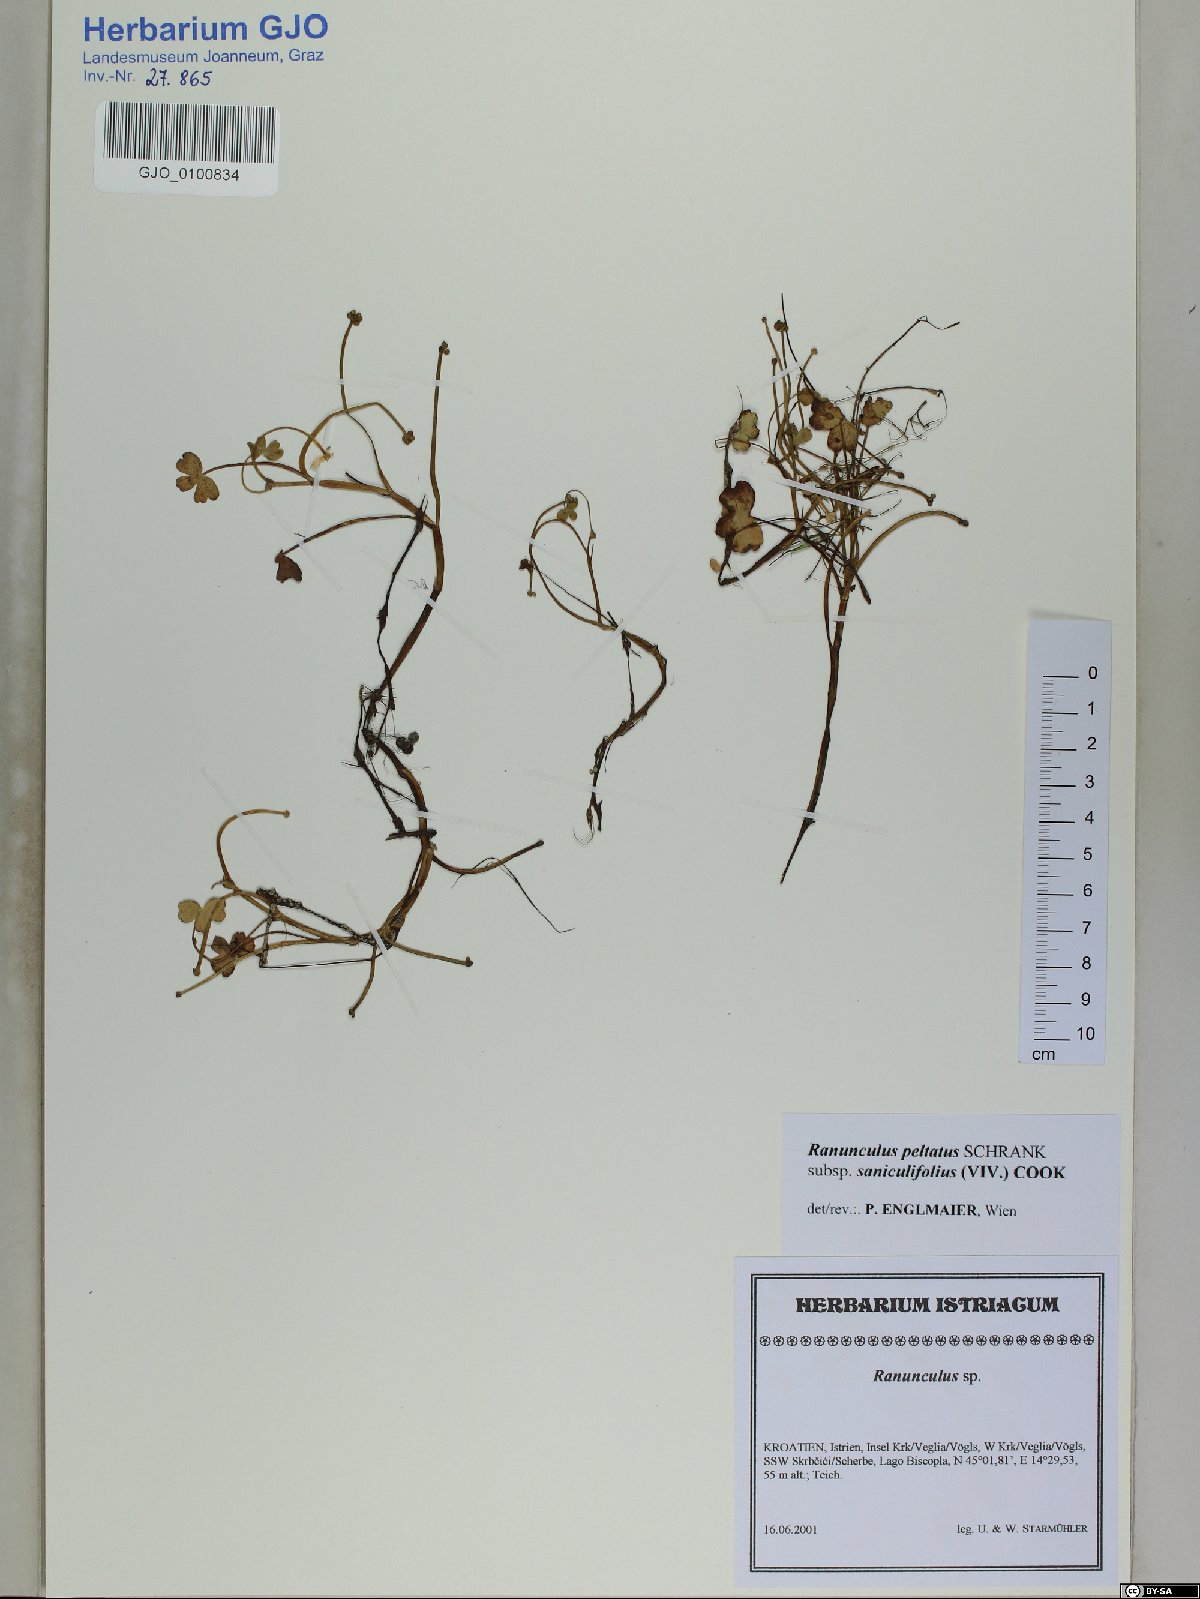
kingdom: Plantae
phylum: Tracheophyta
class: Magnoliopsida
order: Ranunculales
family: Ranunculaceae
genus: Ranunculus
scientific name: Ranunculus peltatus
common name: Pond water-crowfoot
